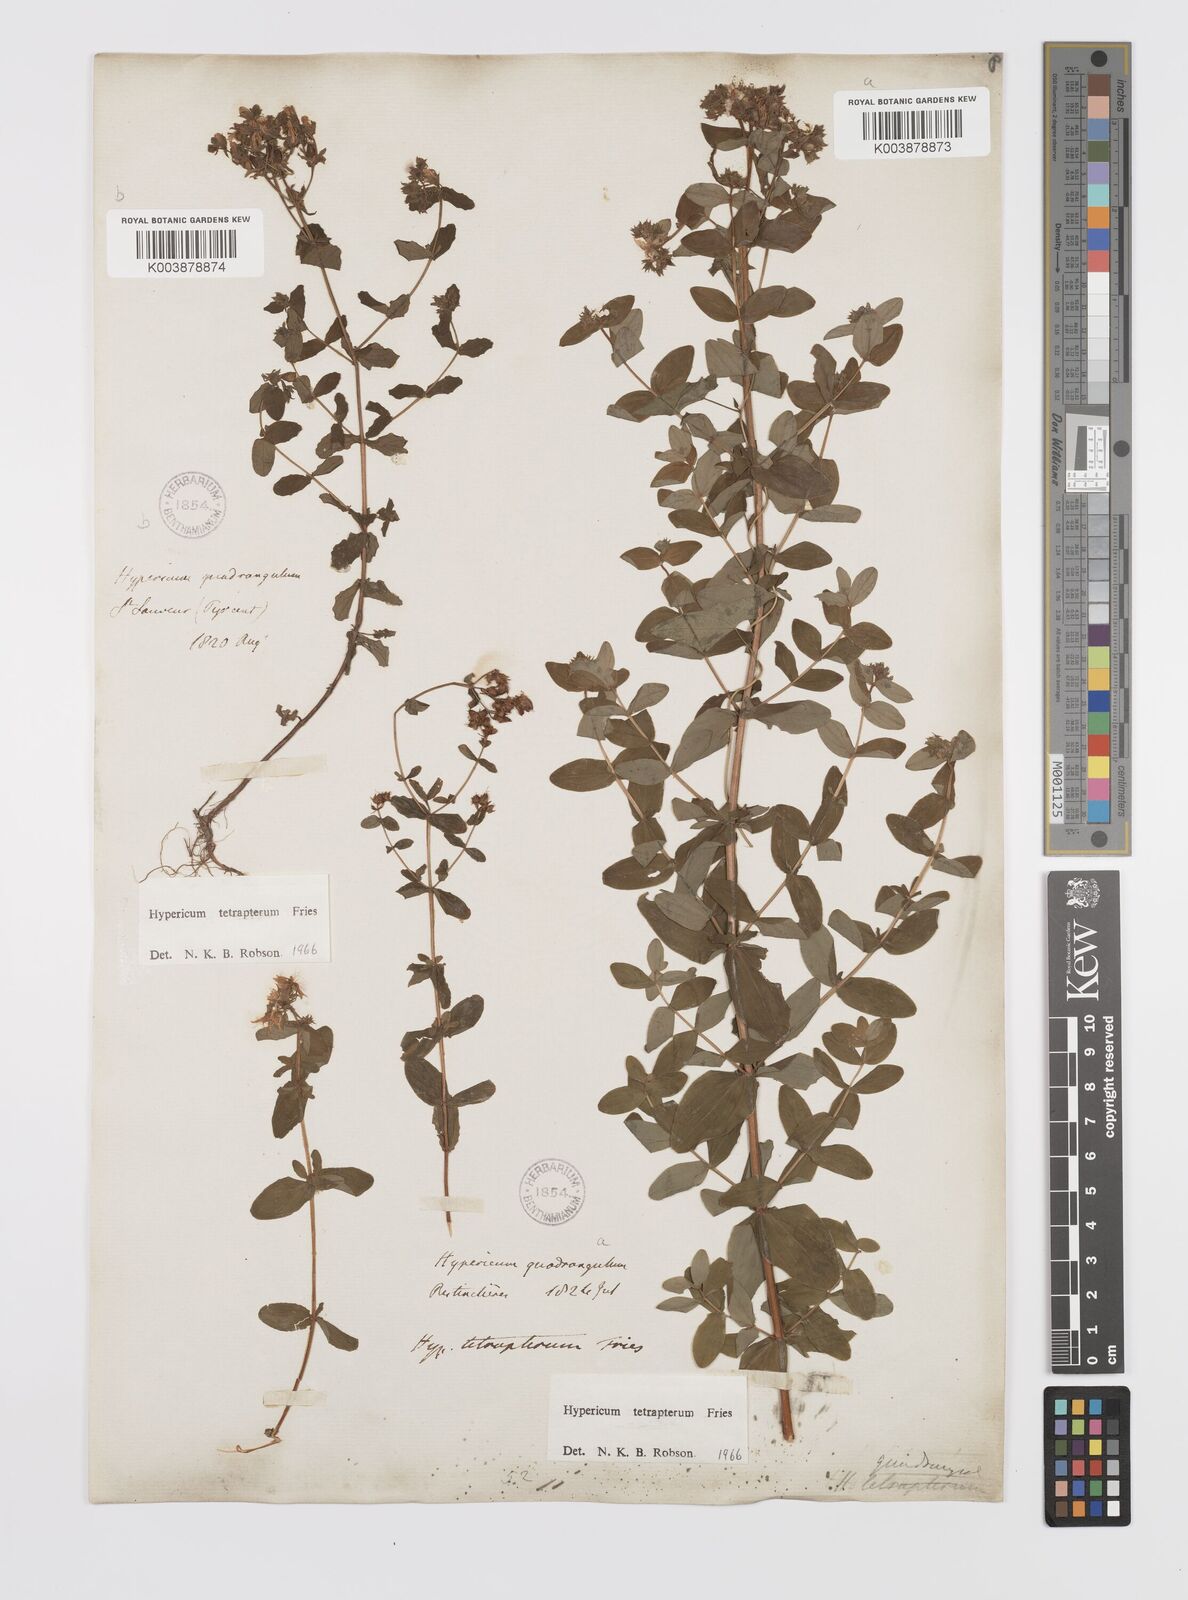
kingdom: Plantae
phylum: Tracheophyta
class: Magnoliopsida
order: Malpighiales
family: Hypericaceae
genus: Hypericum
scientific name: Hypericum tetrapterum
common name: Square-stalked st. john's-wort
